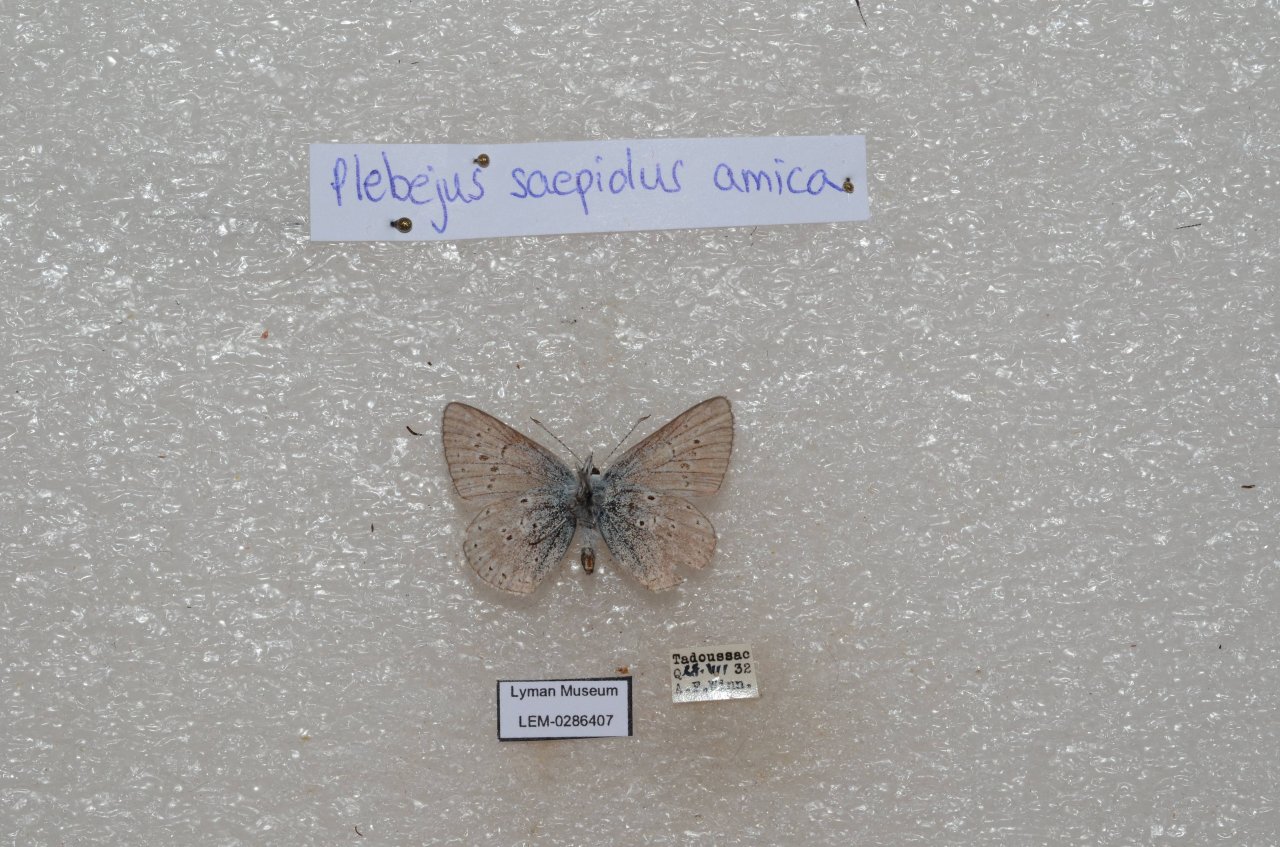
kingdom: Animalia
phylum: Arthropoda
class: Insecta
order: Lepidoptera
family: Lycaenidae
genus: Plebejus
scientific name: Plebejus saepiolus
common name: Greenish Blue
